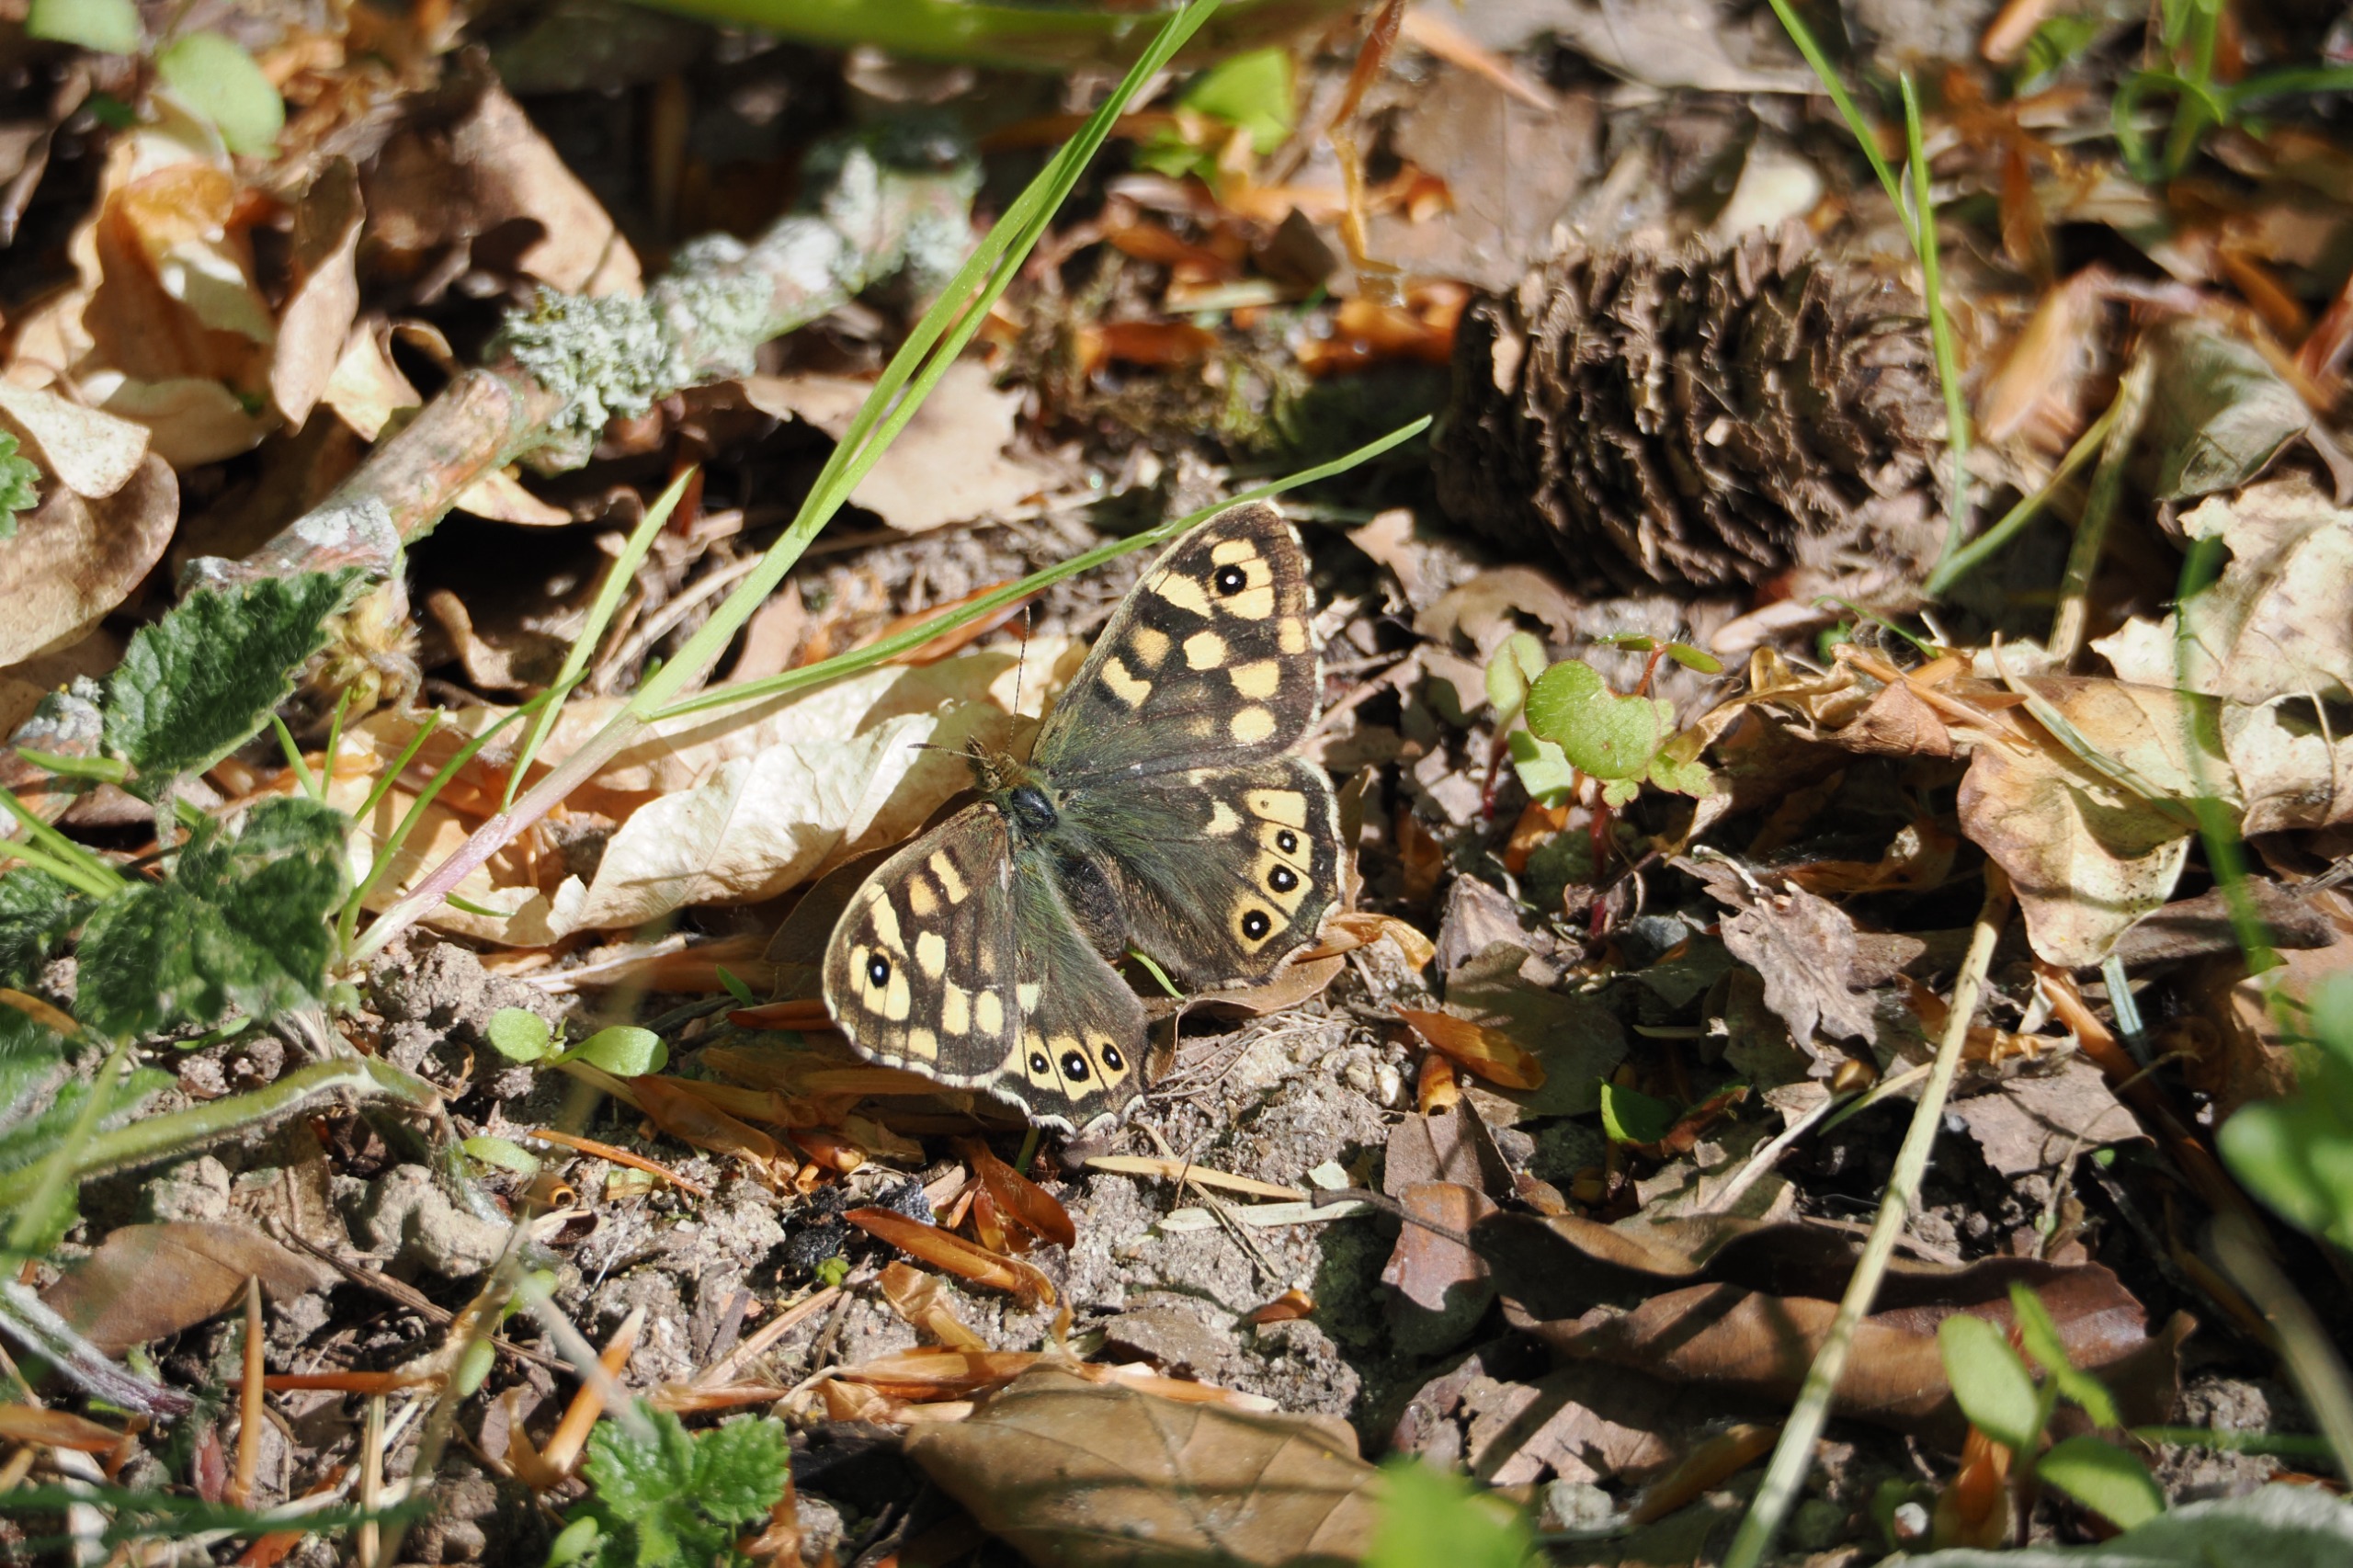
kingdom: Animalia
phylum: Arthropoda
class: Insecta
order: Lepidoptera
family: Nymphalidae
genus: Pararge
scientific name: Pararge aegeria
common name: Skovrandøje
